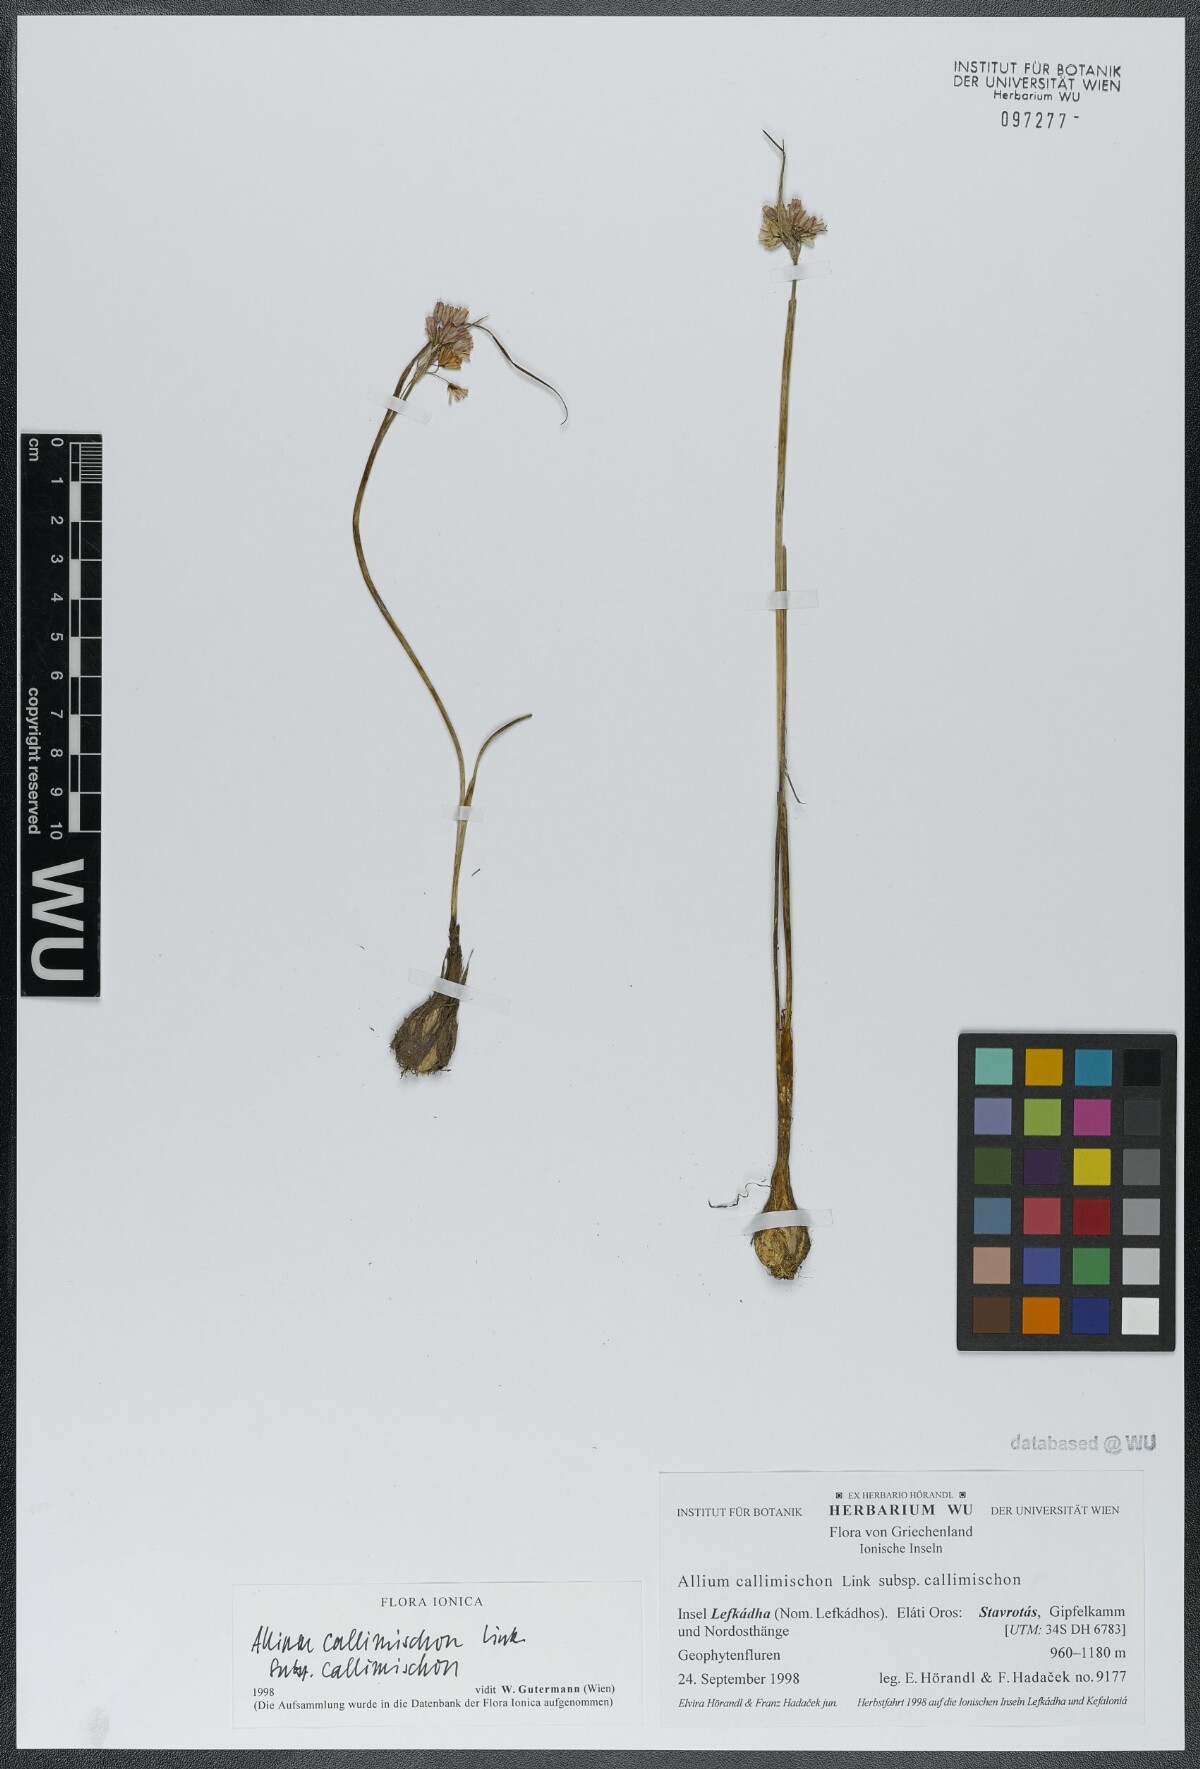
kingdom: Plantae
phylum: Tracheophyta
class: Liliopsida
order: Asparagales
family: Amaryllidaceae
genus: Allium
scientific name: Allium callimischon
